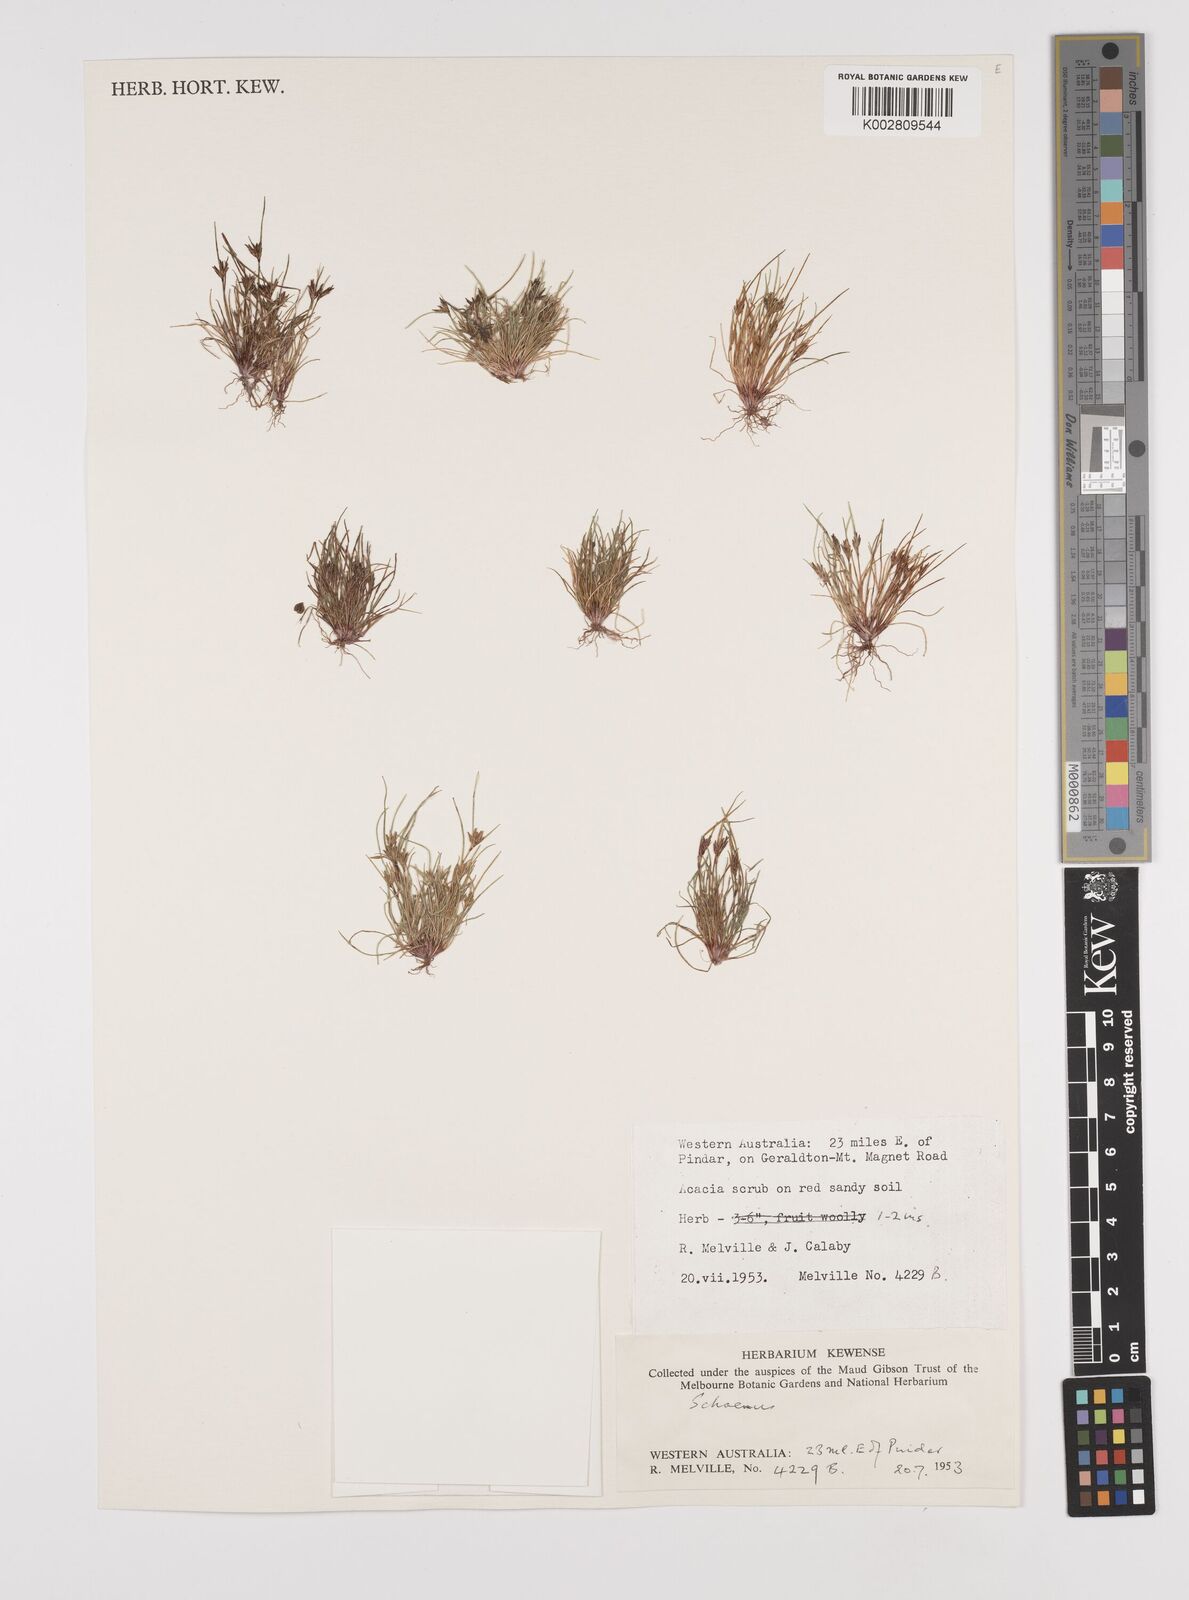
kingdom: Plantae
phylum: Tracheophyta
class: Liliopsida
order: Poales
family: Cyperaceae
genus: Schoenus
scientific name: Schoenus
